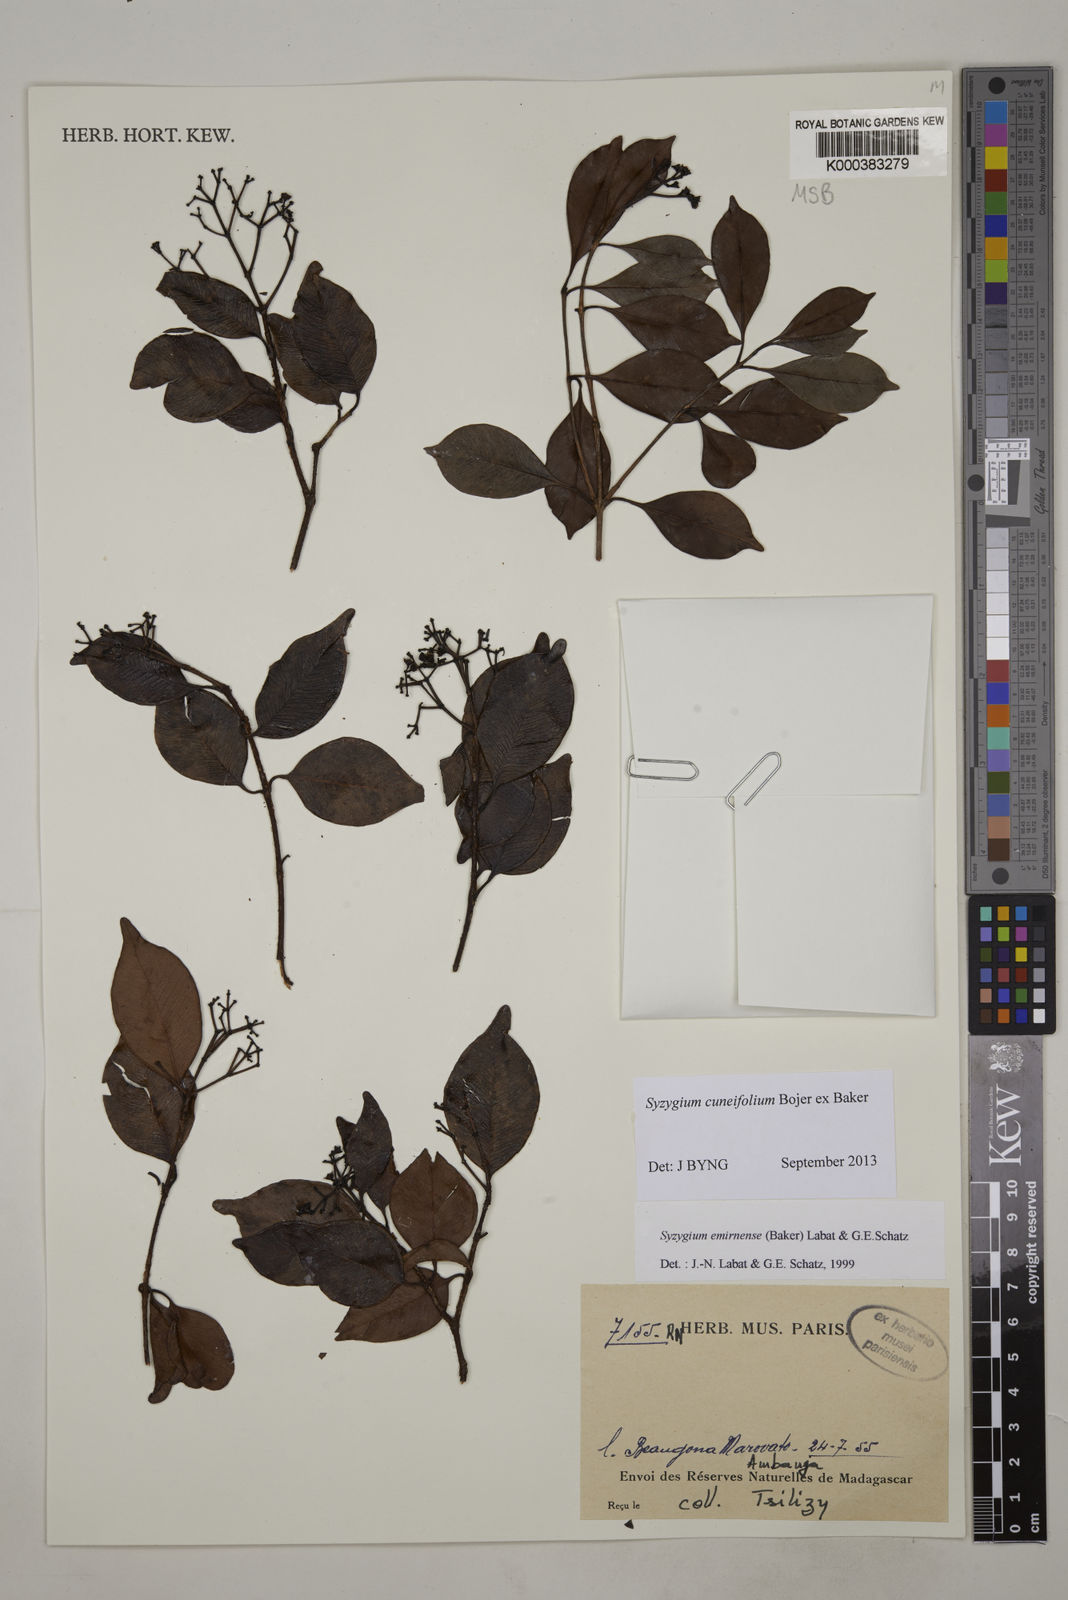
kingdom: Plantae
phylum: Tracheophyta
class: Magnoliopsida
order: Myrtales
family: Myrtaceae
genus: Syzygium
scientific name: Syzygium emirnense
